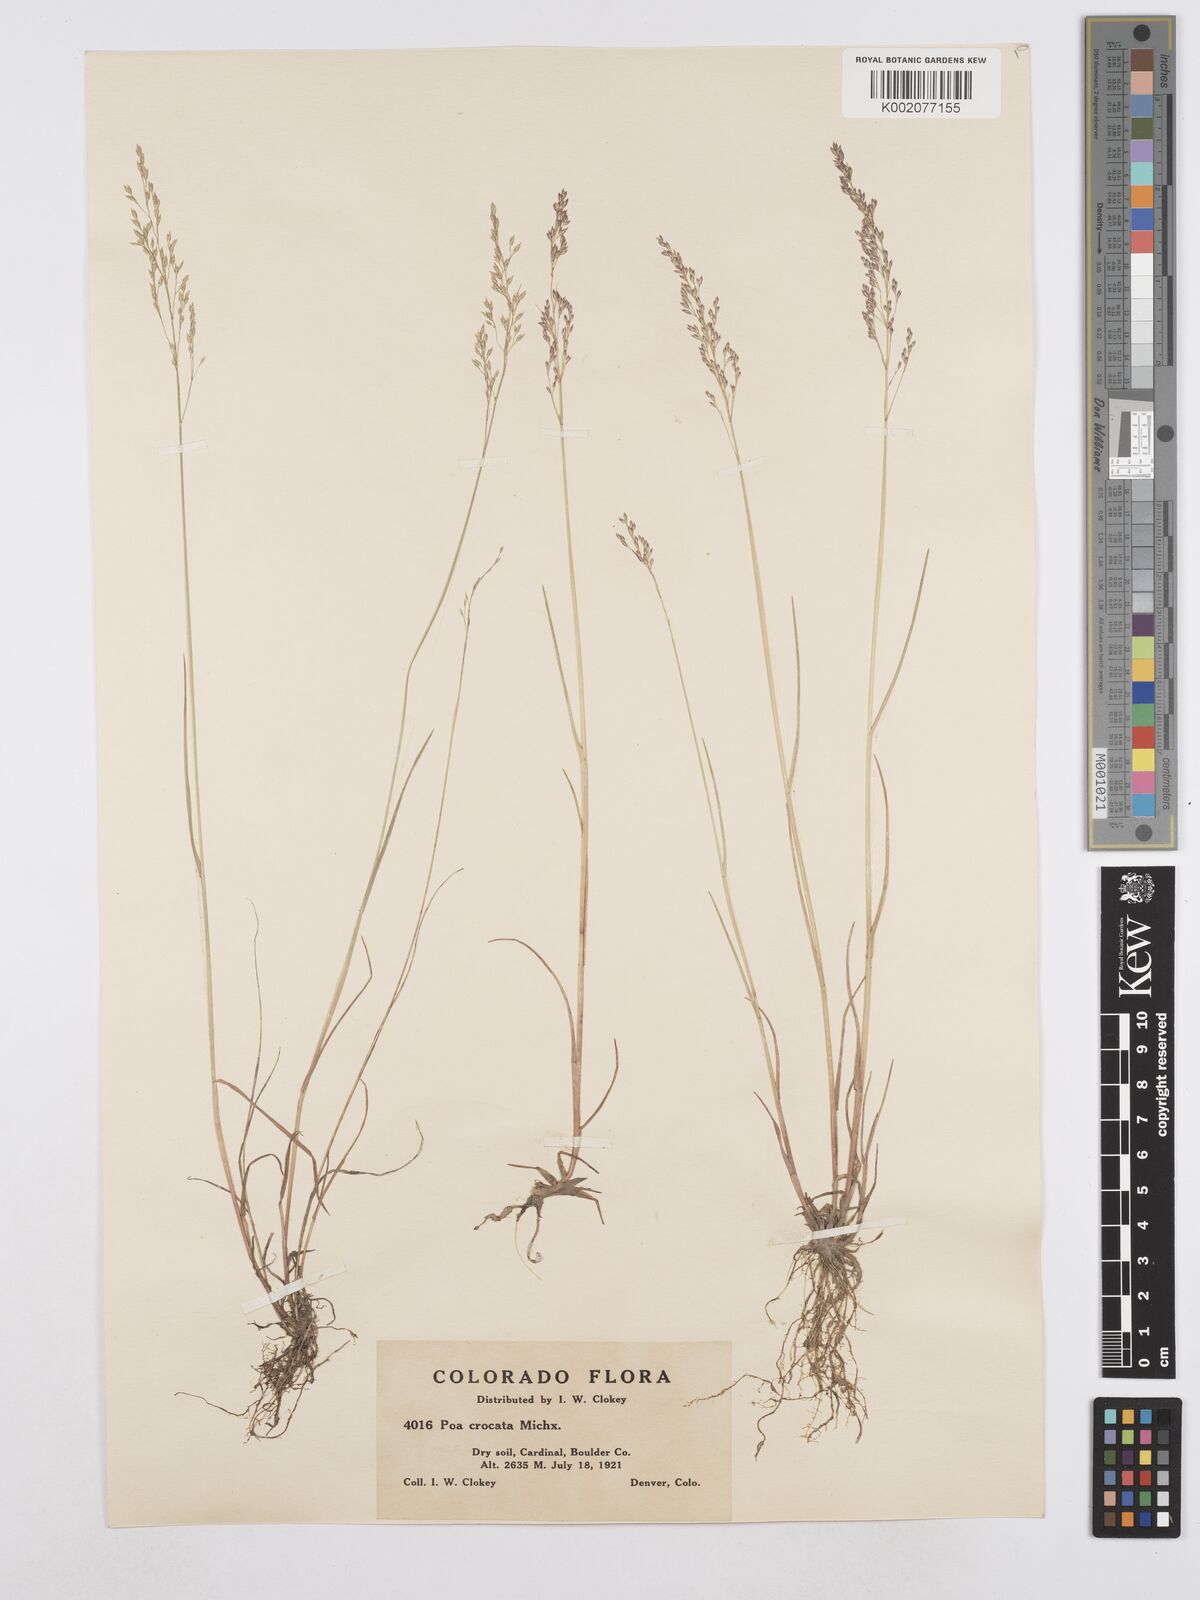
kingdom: Plantae
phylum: Tracheophyta
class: Liliopsida
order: Poales
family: Poaceae
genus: Poa
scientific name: Poa palustris
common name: Swamp meadow-grass
